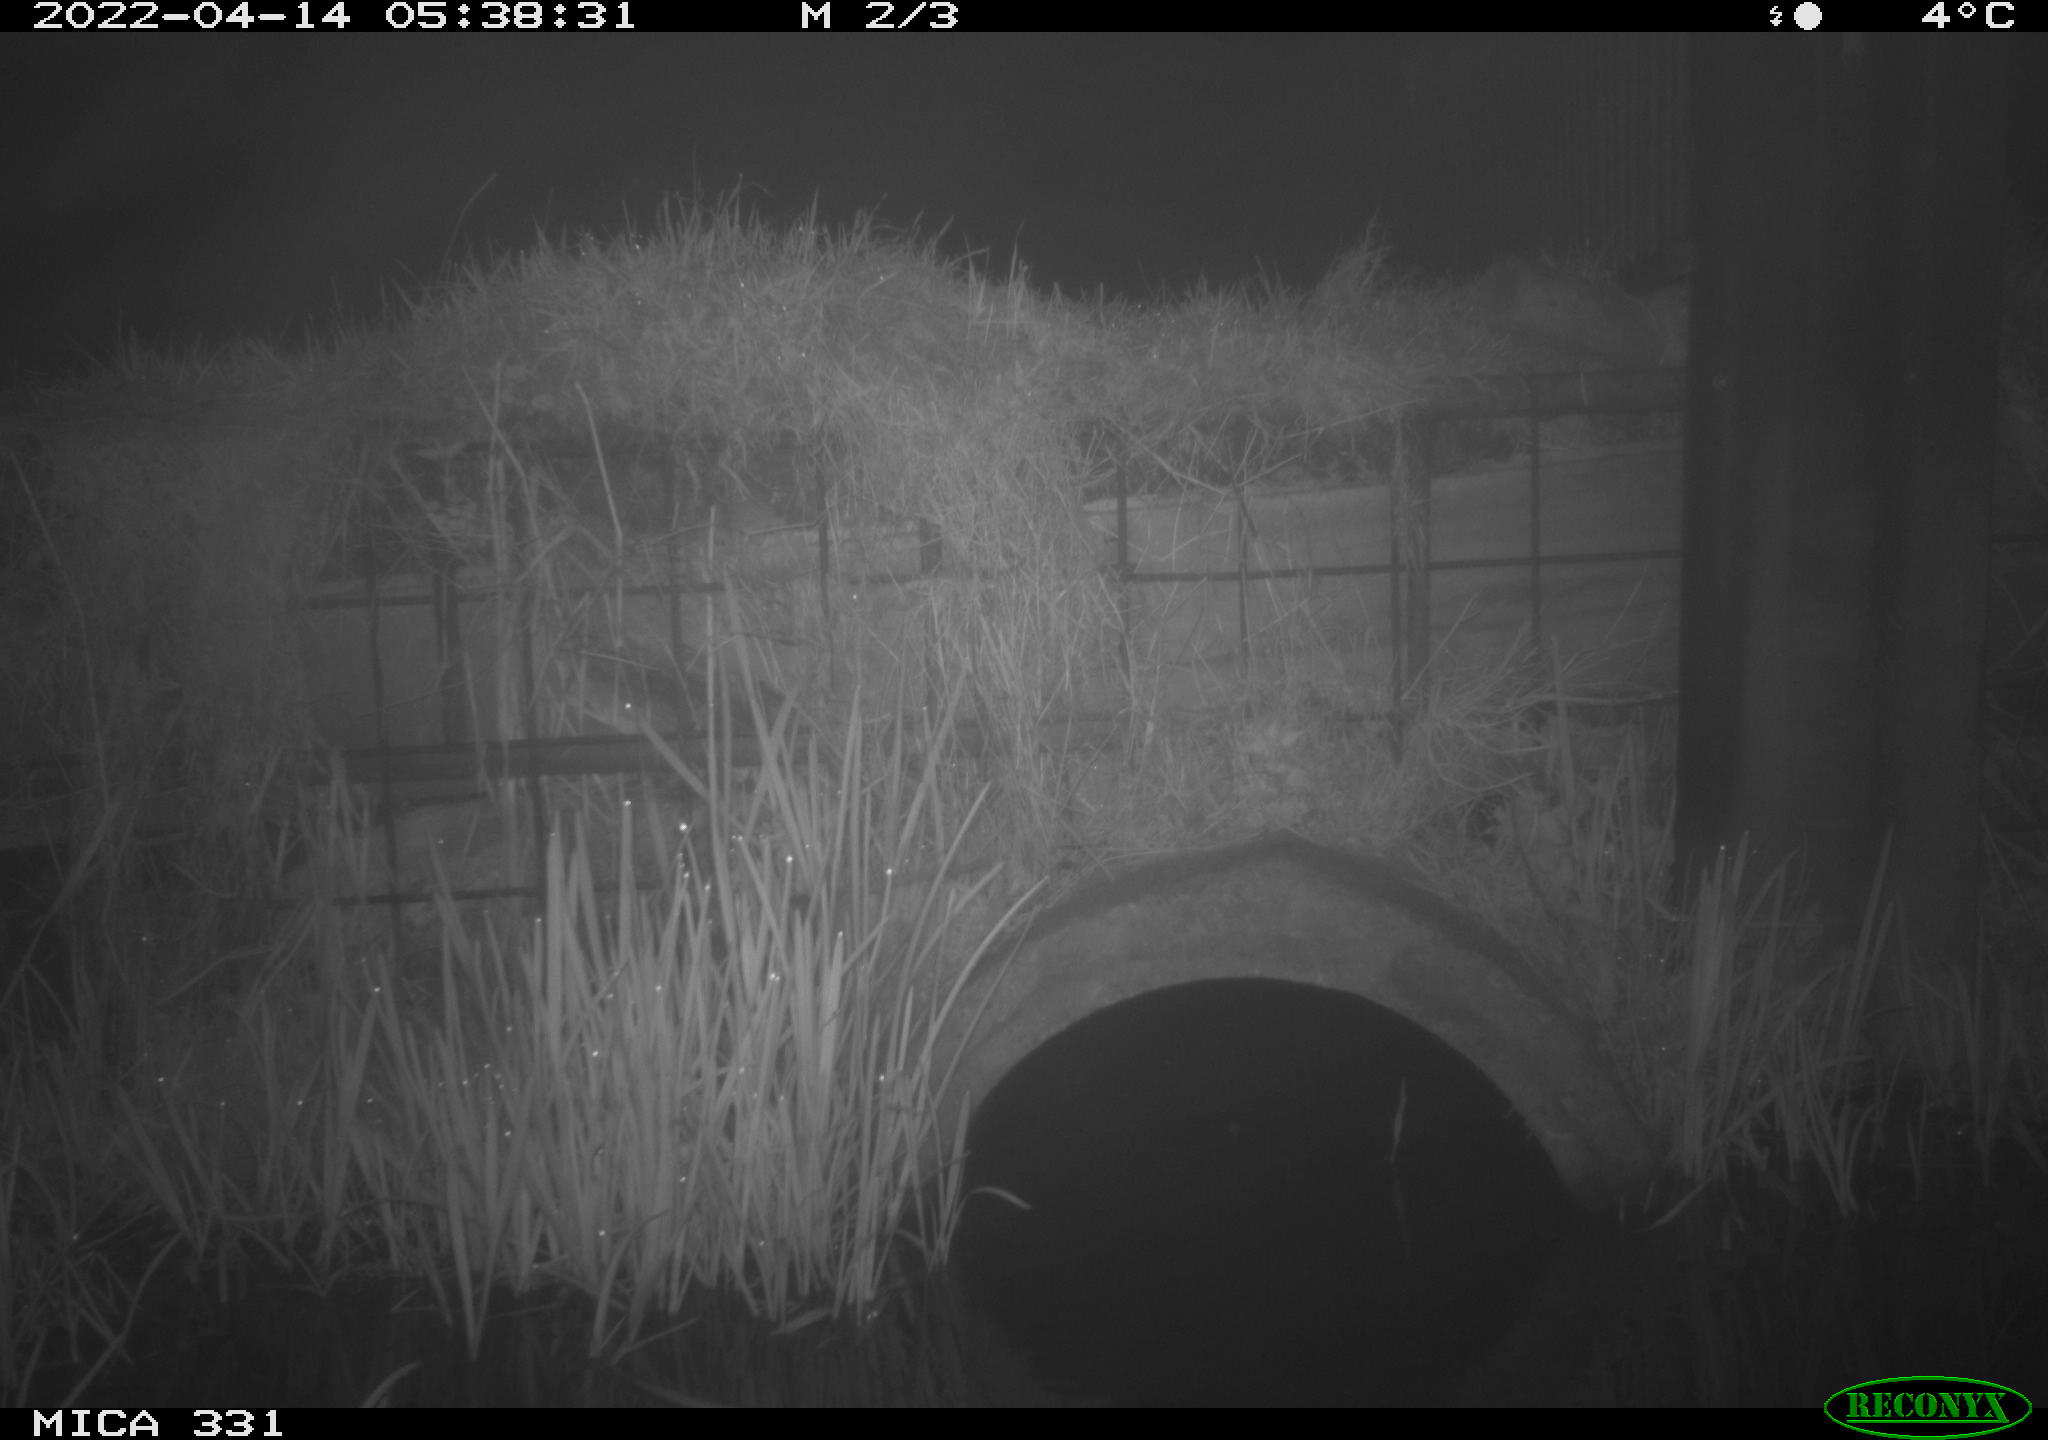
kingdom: Animalia
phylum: Chordata
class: Mammalia
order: Rodentia
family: Muridae
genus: Rattus
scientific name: Rattus norvegicus
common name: Brown rat
